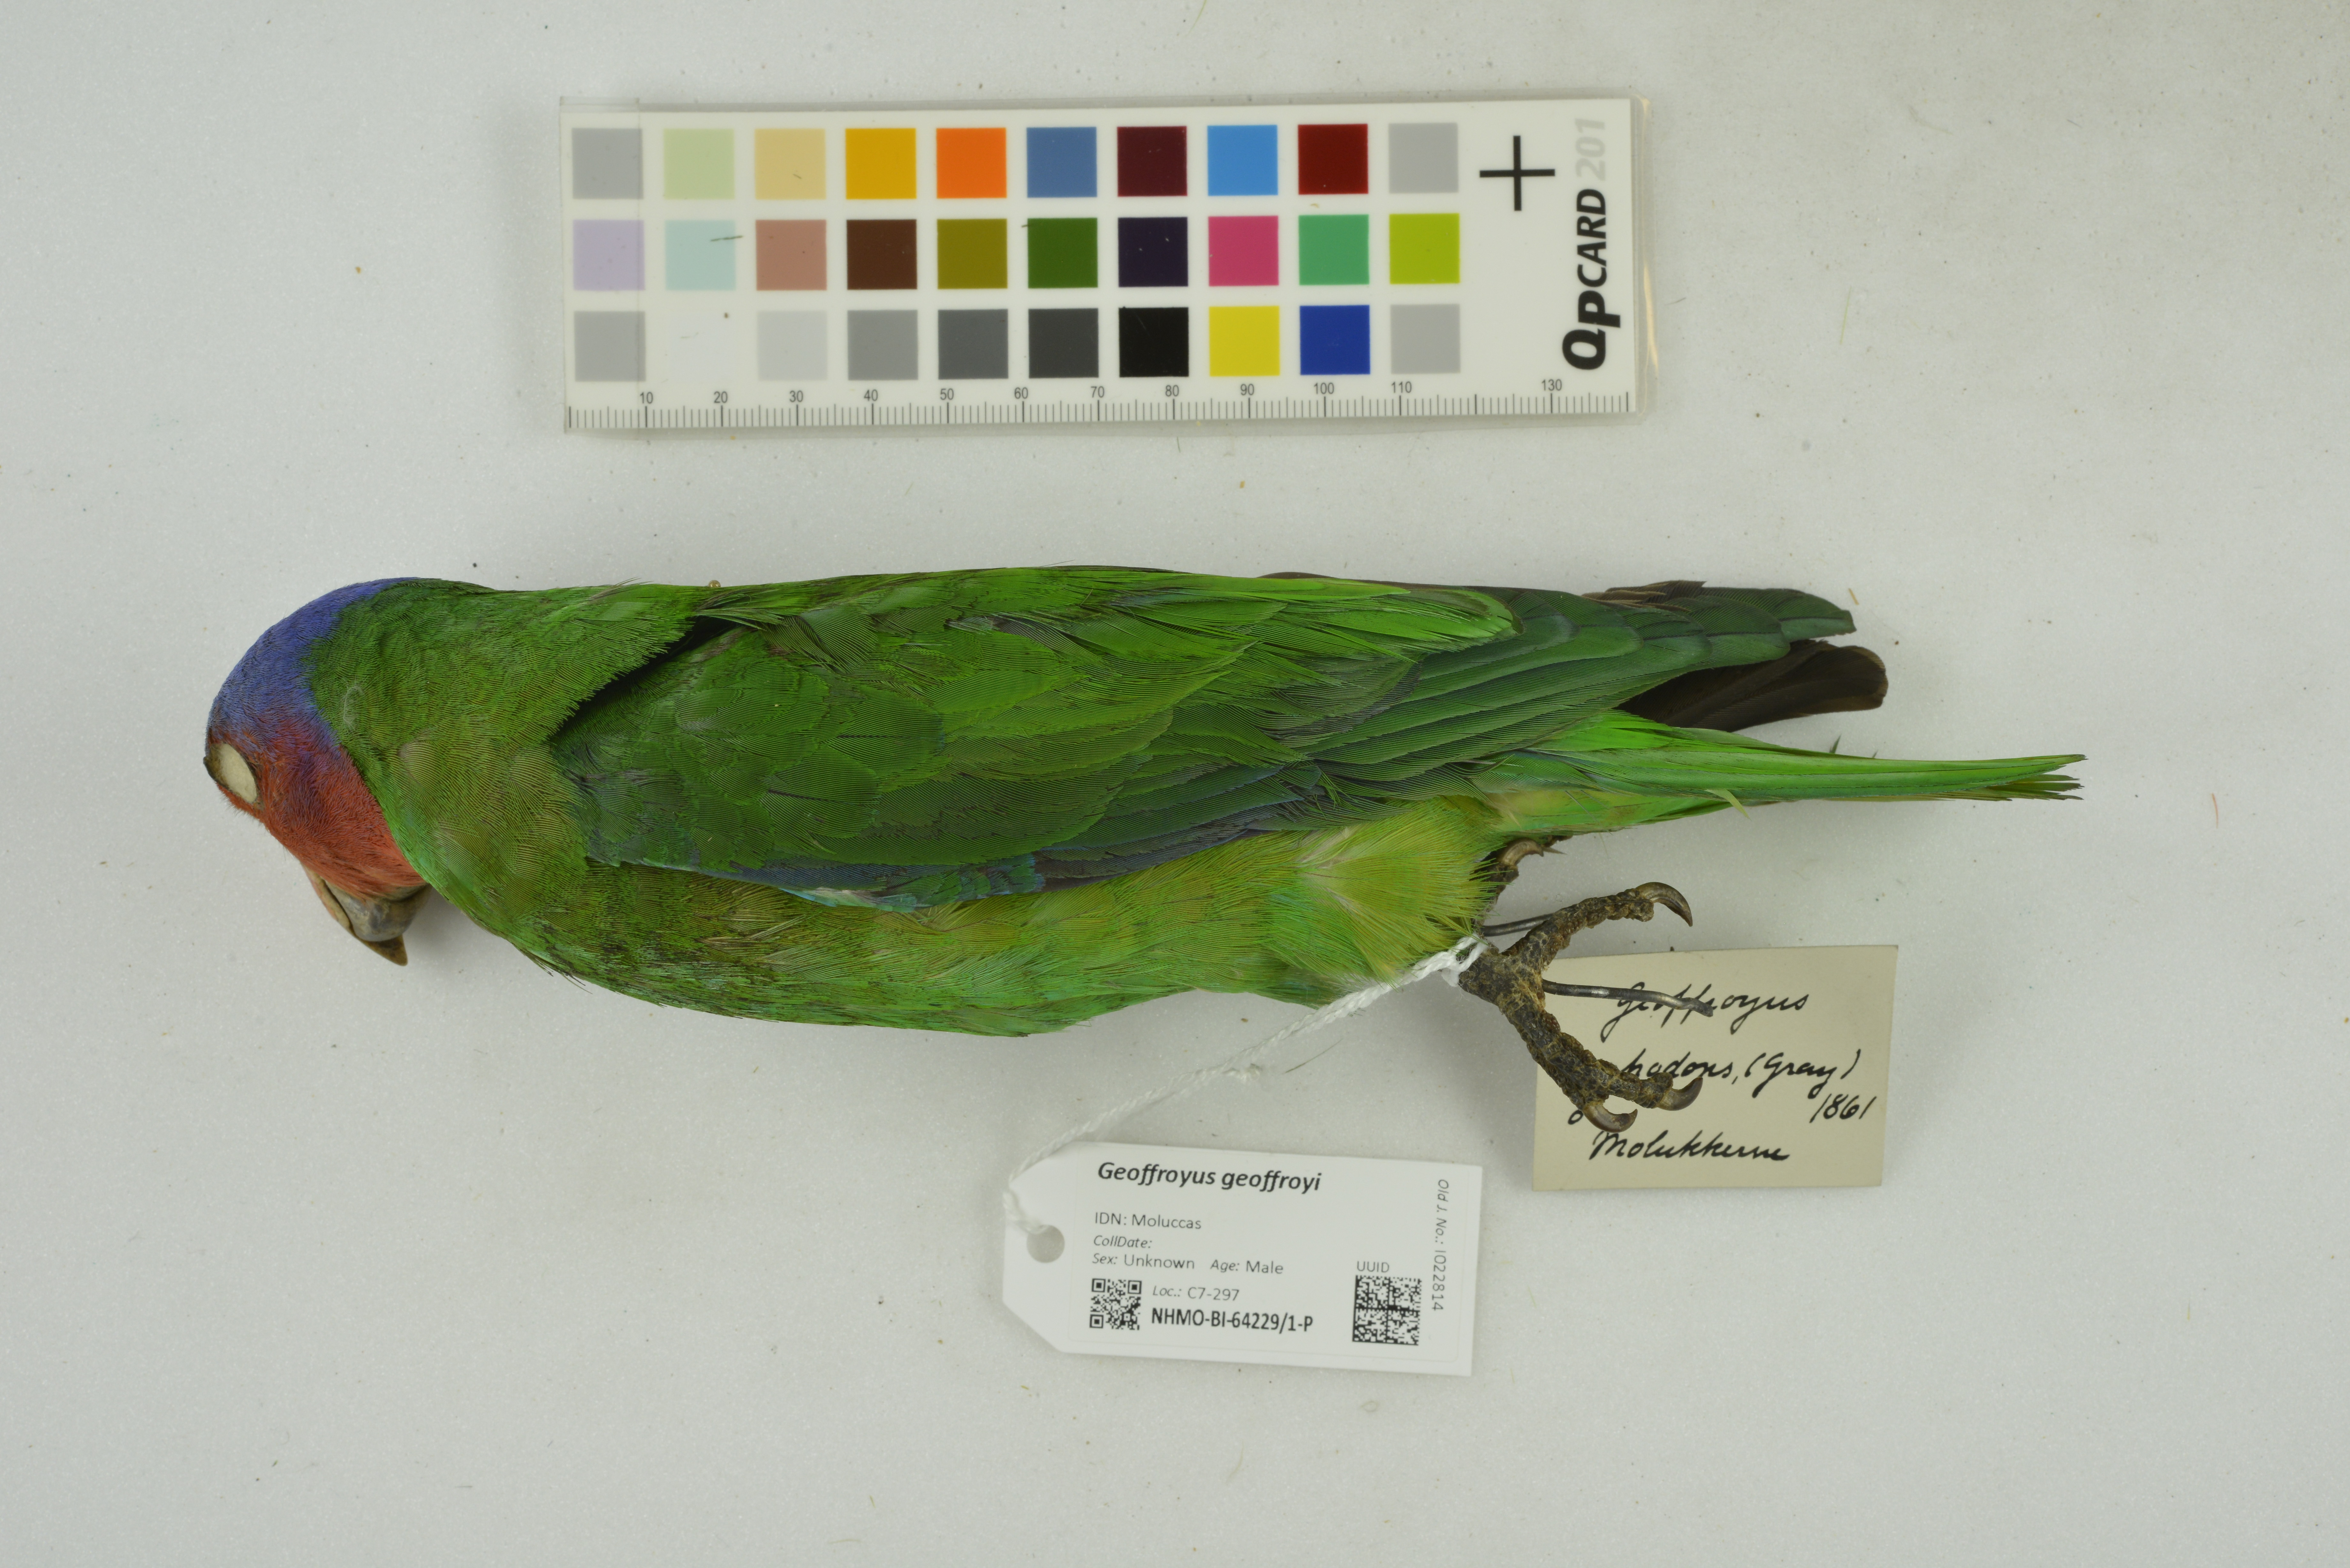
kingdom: Animalia
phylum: Chordata
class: Aves
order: Psittaciformes
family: Psittacidae
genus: Geoffroyus
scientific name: Geoffroyus geoffroyi
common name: Red-cheeked parrot
